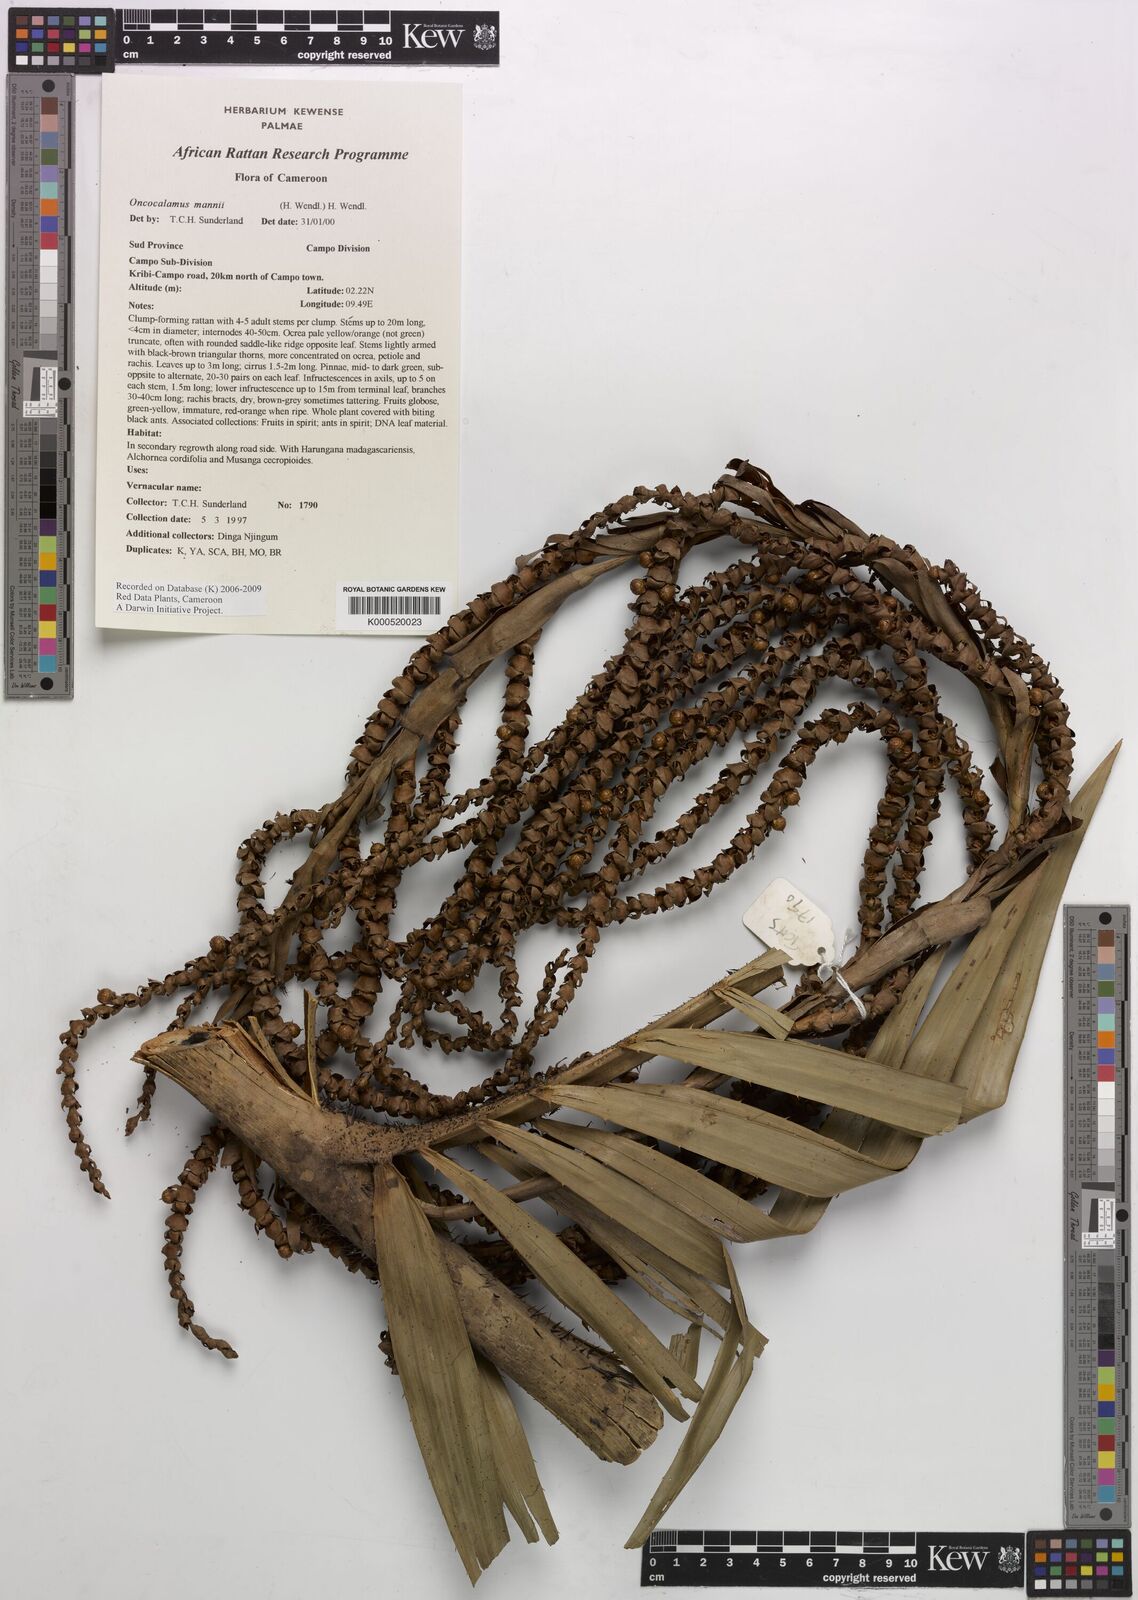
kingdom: Plantae
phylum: Tracheophyta
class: Liliopsida
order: Arecales
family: Arecaceae
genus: Oncocalamus
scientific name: Oncocalamus mannii
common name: Rattan
